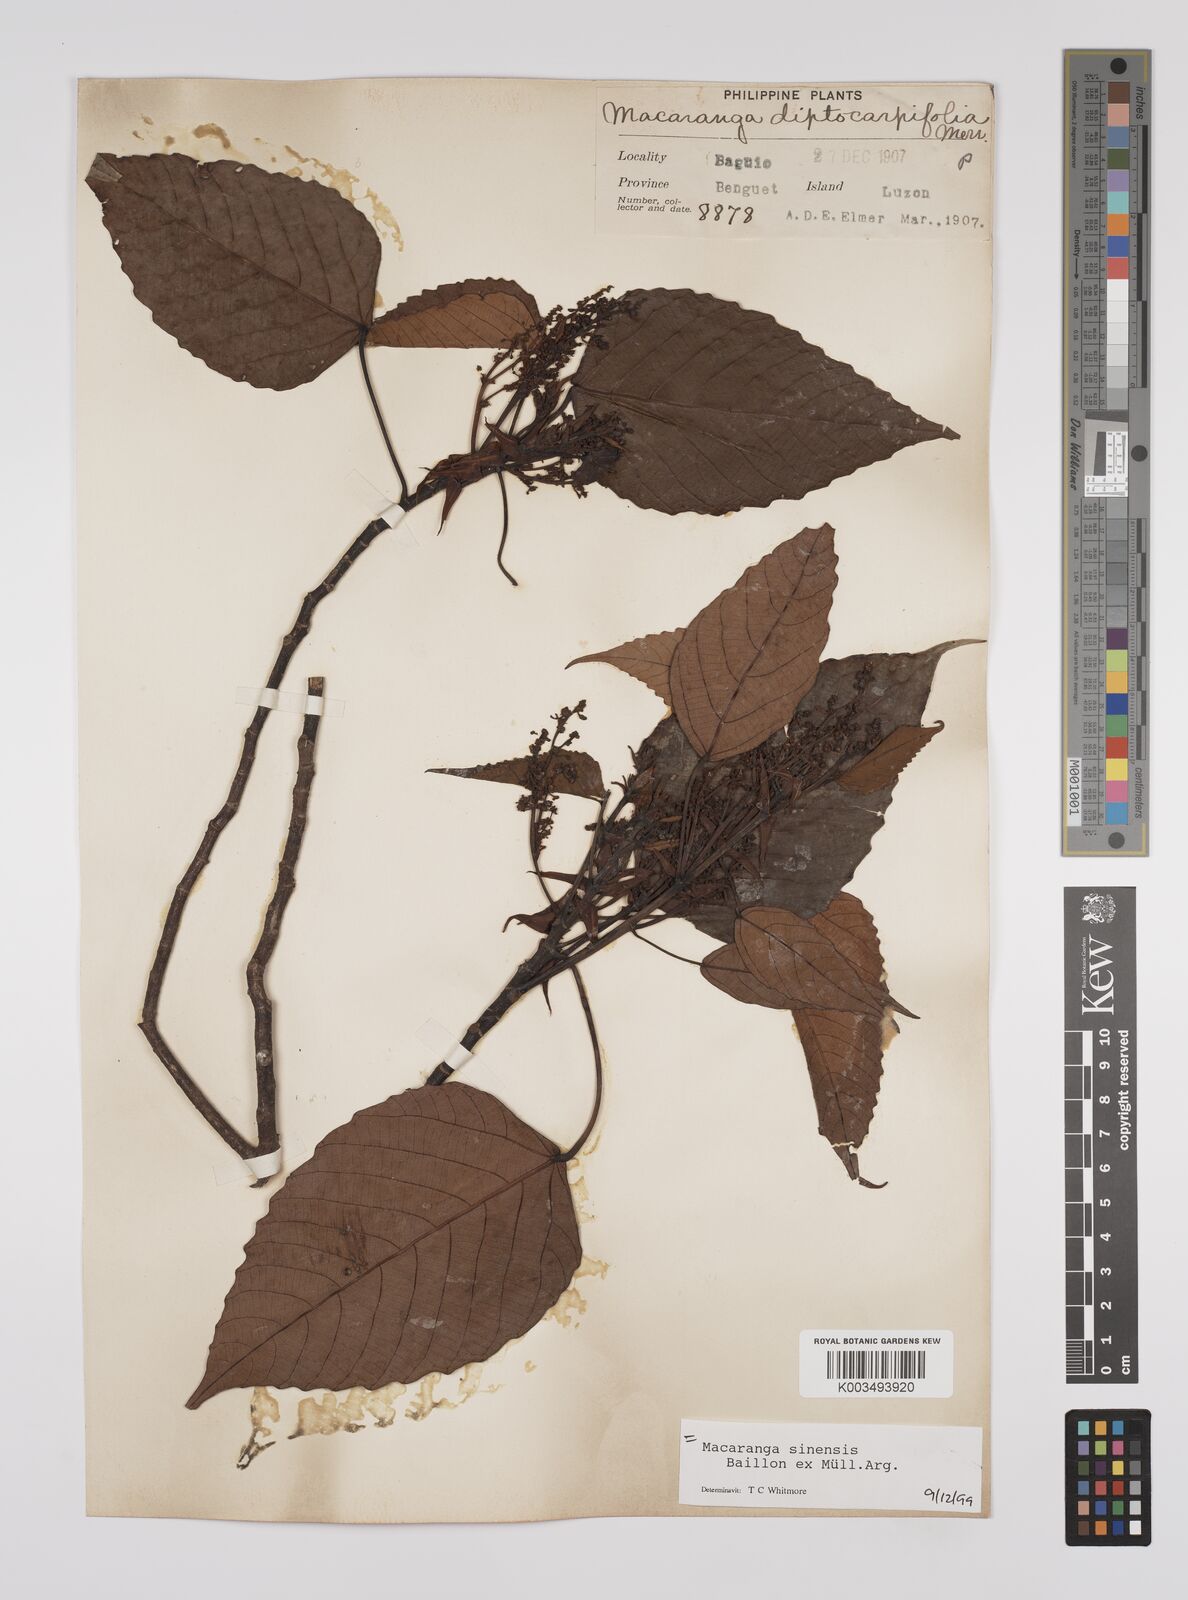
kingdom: Plantae
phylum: Tracheophyta
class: Magnoliopsida
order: Malpighiales
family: Euphorbiaceae
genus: Macaranga
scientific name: Macaranga sinensis
